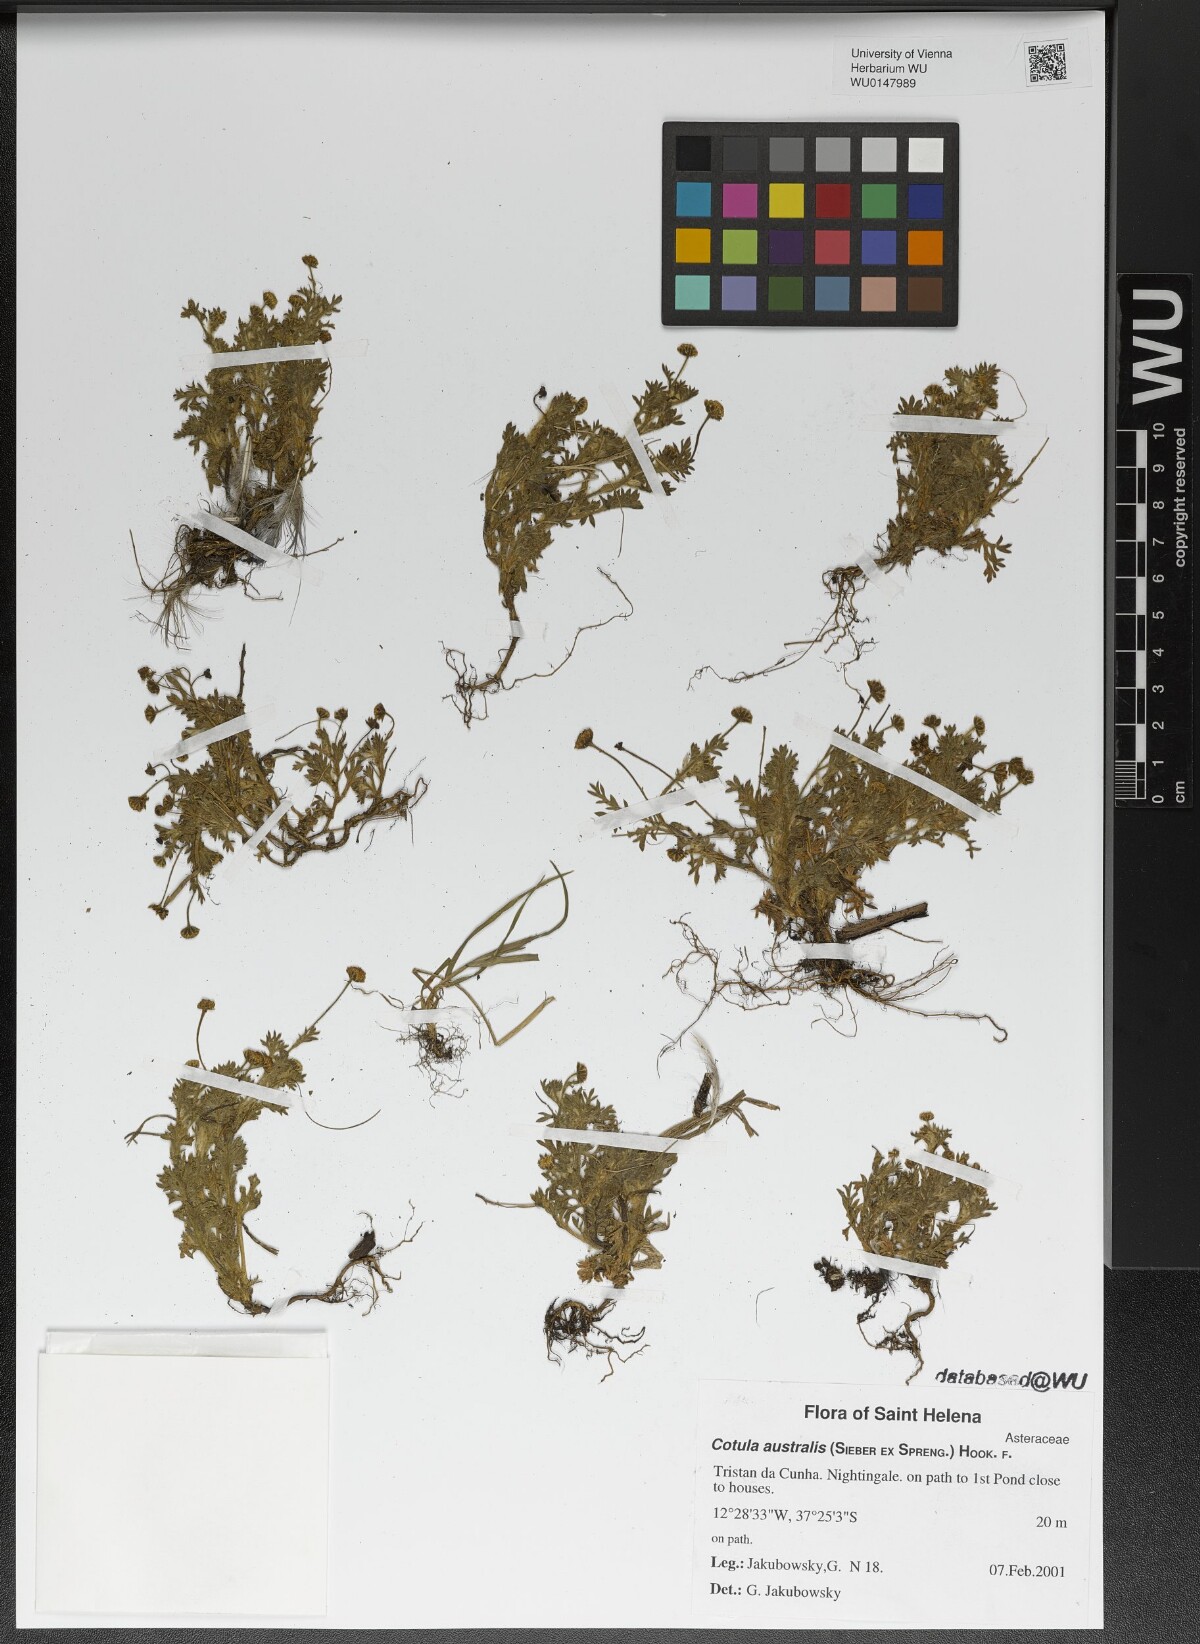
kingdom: Plantae
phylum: Tracheophyta
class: Magnoliopsida
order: Asterales
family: Asteraceae
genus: Cotula
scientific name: Cotula australis
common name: Australian waterbuttons
